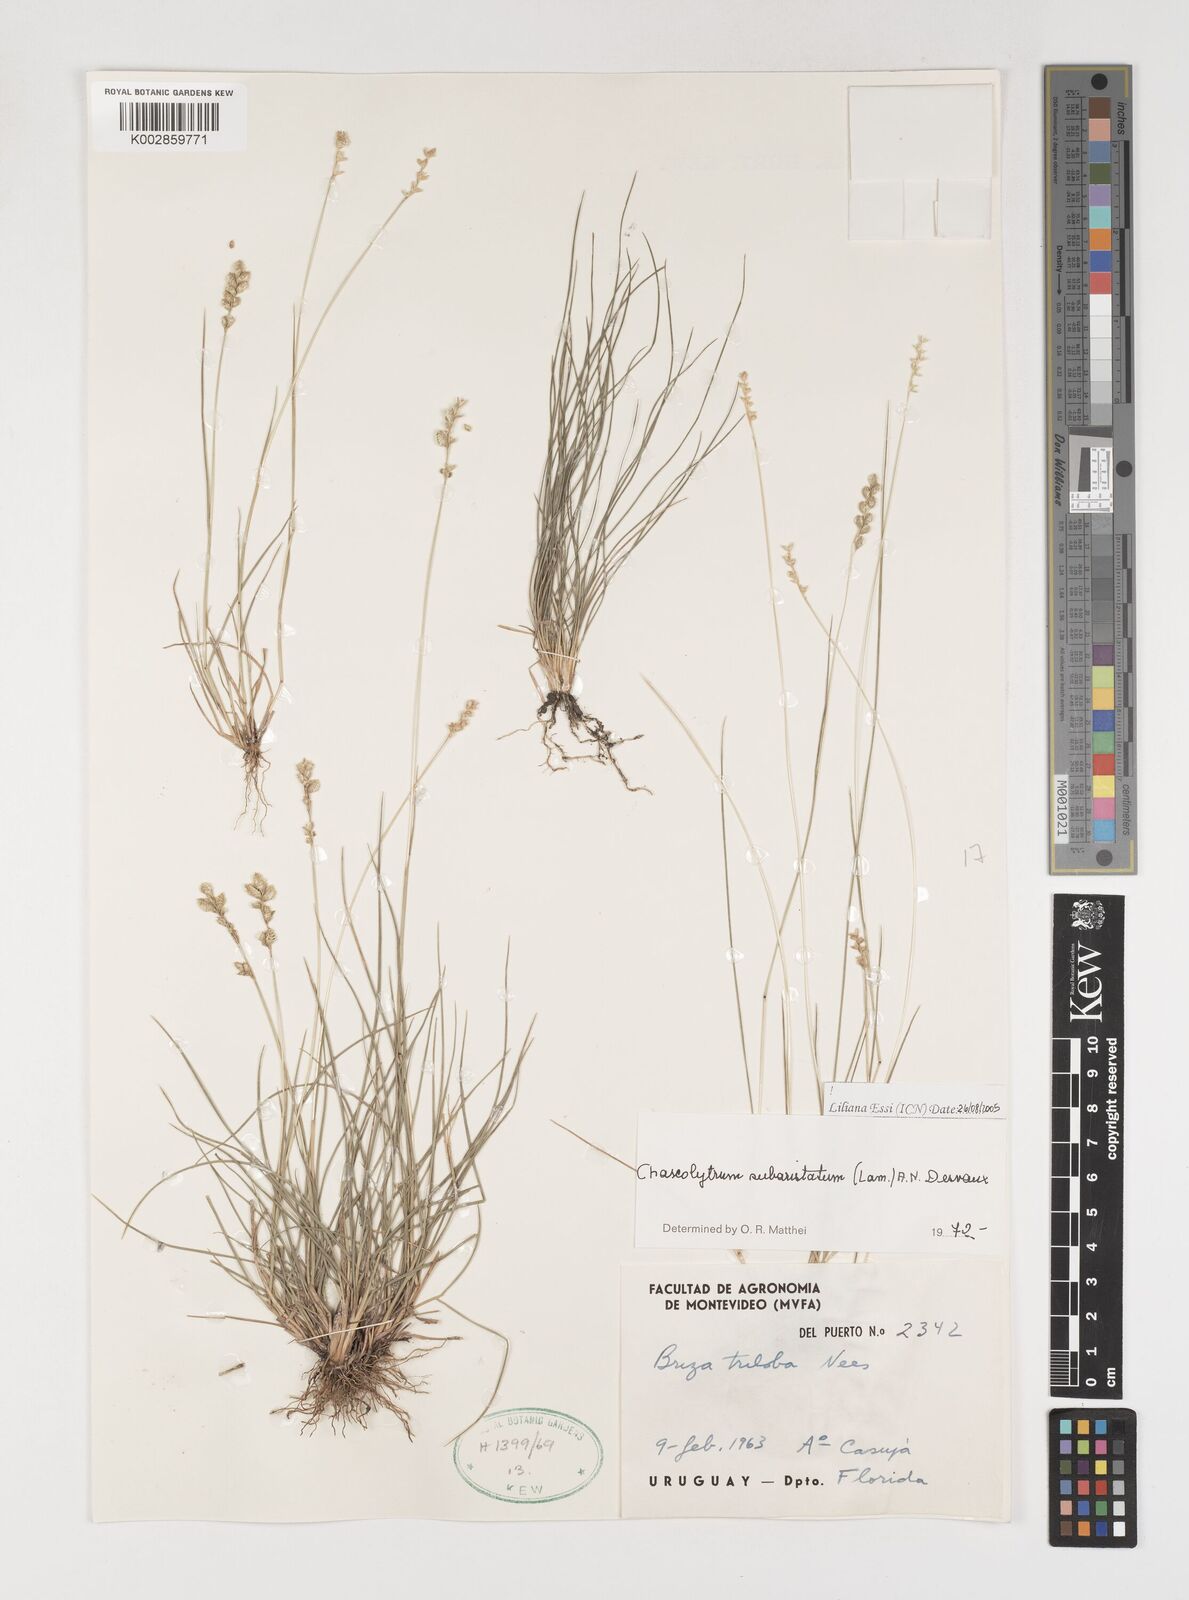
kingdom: Plantae
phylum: Tracheophyta
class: Liliopsida
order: Poales
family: Poaceae
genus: Chascolytrum
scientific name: Chascolytrum subaristatum
